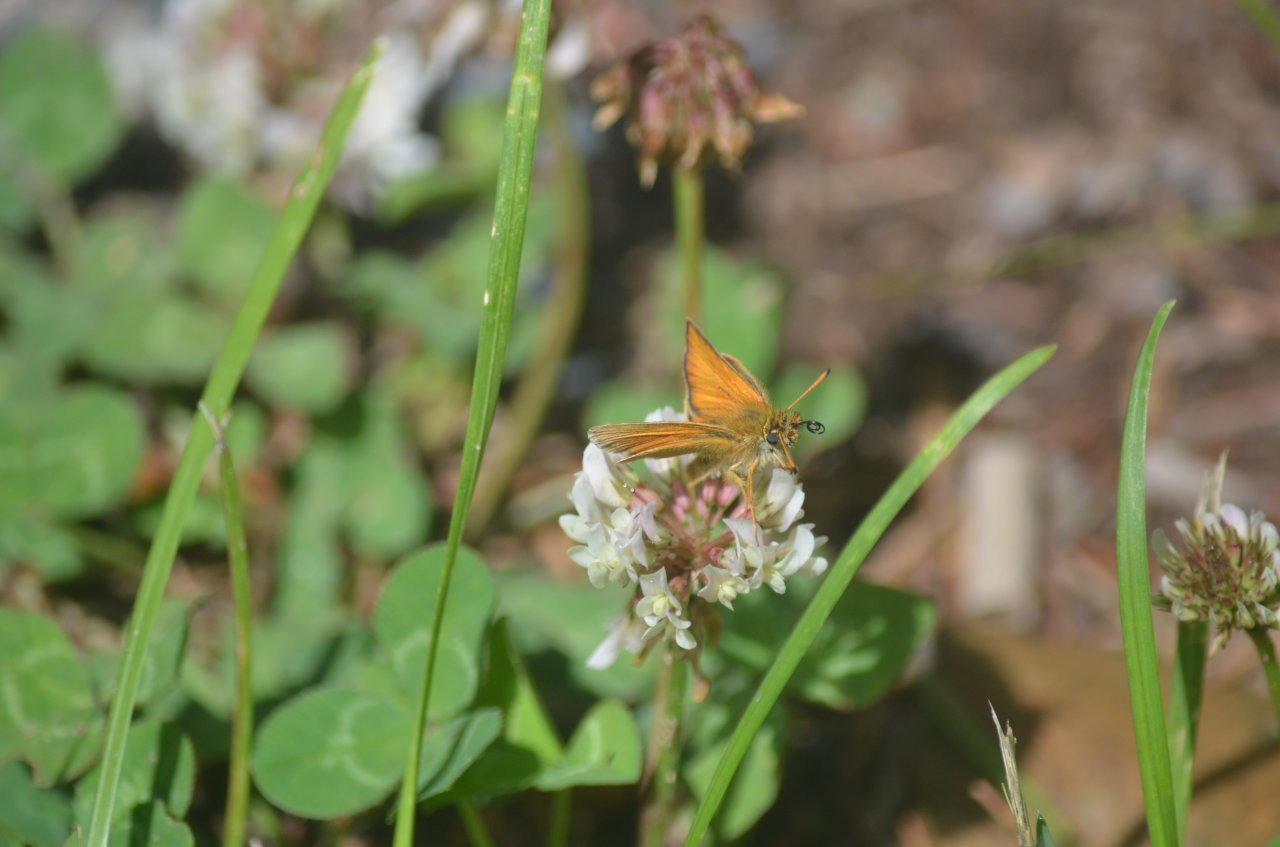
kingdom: Animalia
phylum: Arthropoda
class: Insecta
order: Lepidoptera
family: Hesperiidae
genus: Thymelicus
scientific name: Thymelicus lineola
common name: European Skipper
